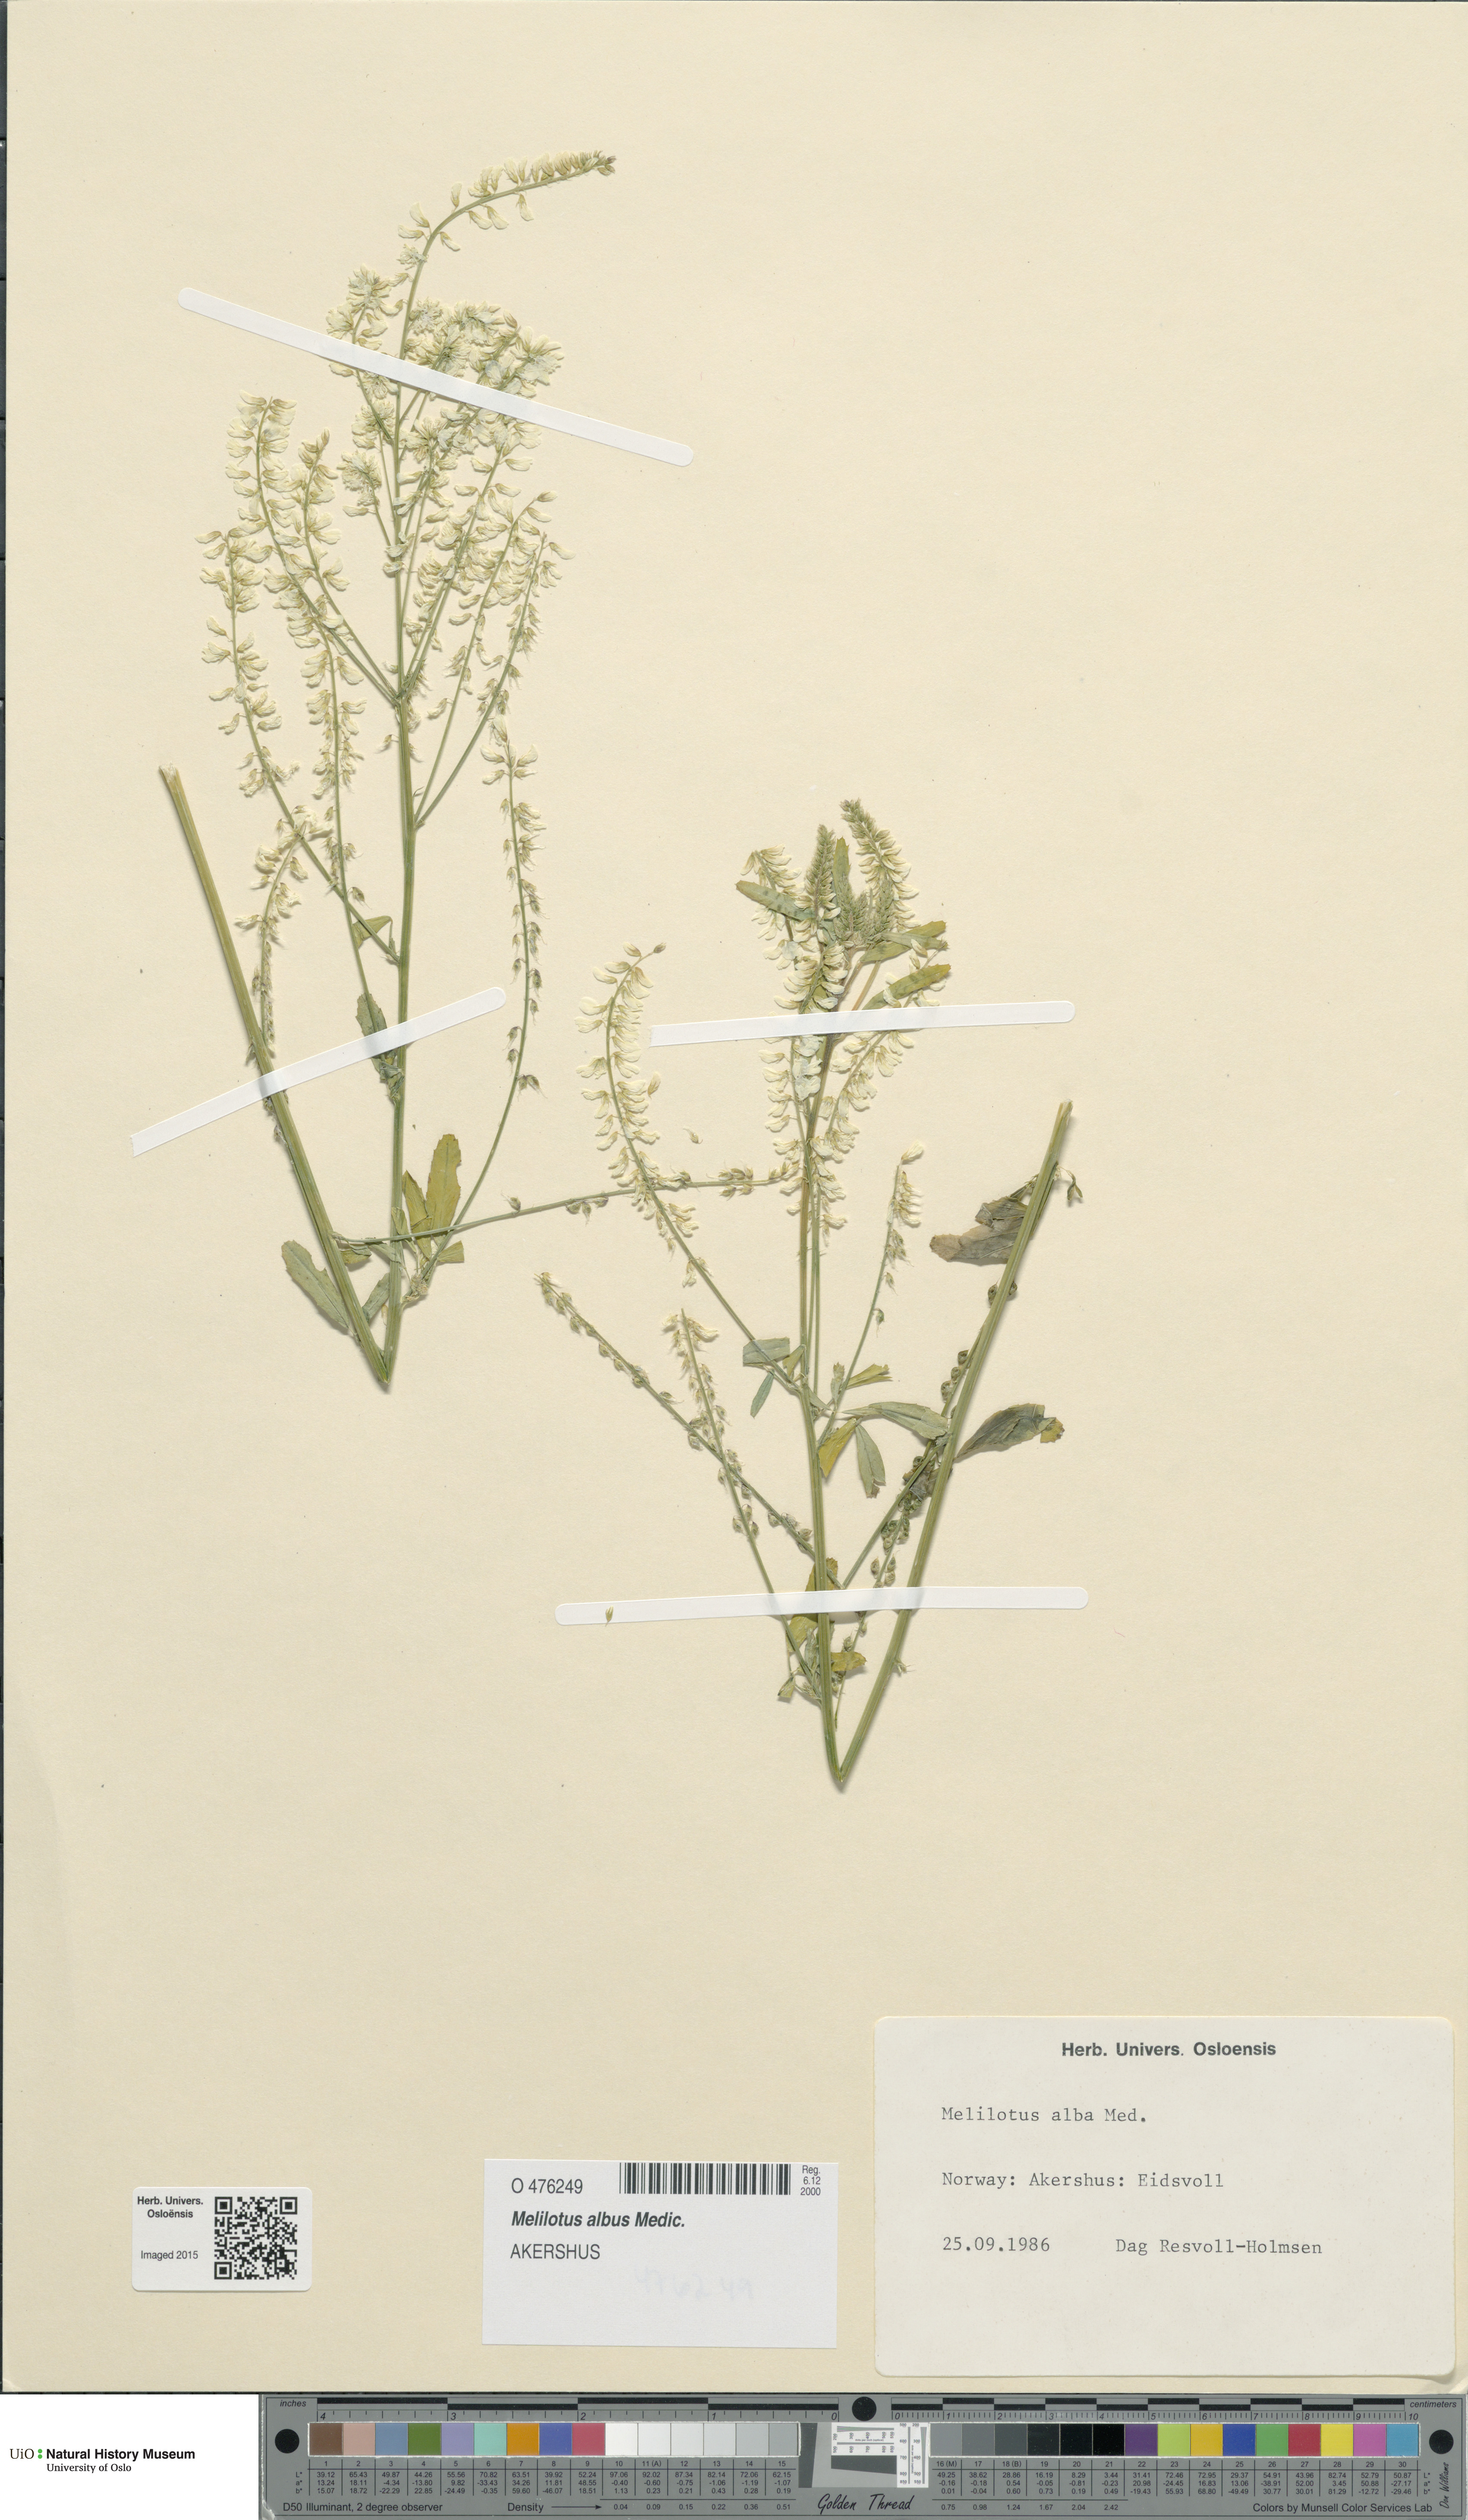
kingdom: Plantae
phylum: Tracheophyta
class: Magnoliopsida
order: Fabales
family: Fabaceae
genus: Melilotus
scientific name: Melilotus albus
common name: White melilot
